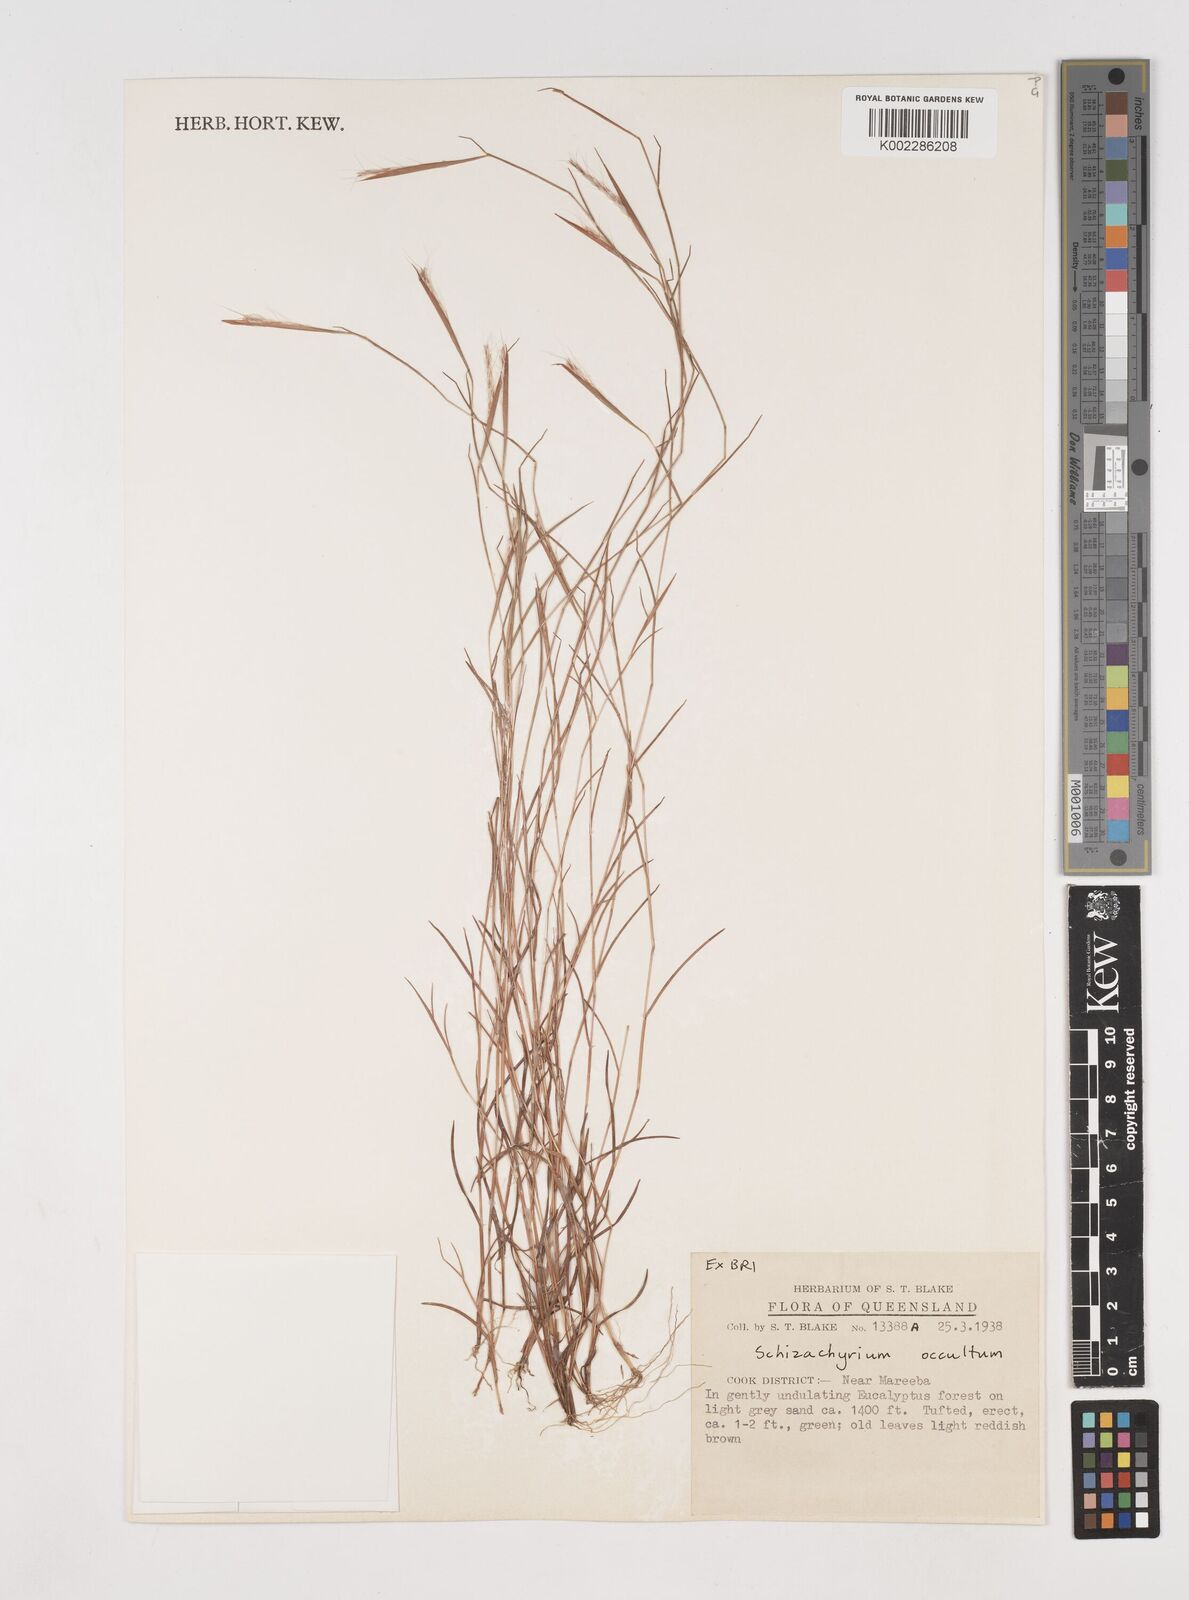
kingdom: Plantae
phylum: Tracheophyta
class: Liliopsida
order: Poales
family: Poaceae
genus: Schizachyrium
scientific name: Schizachyrium occultum
